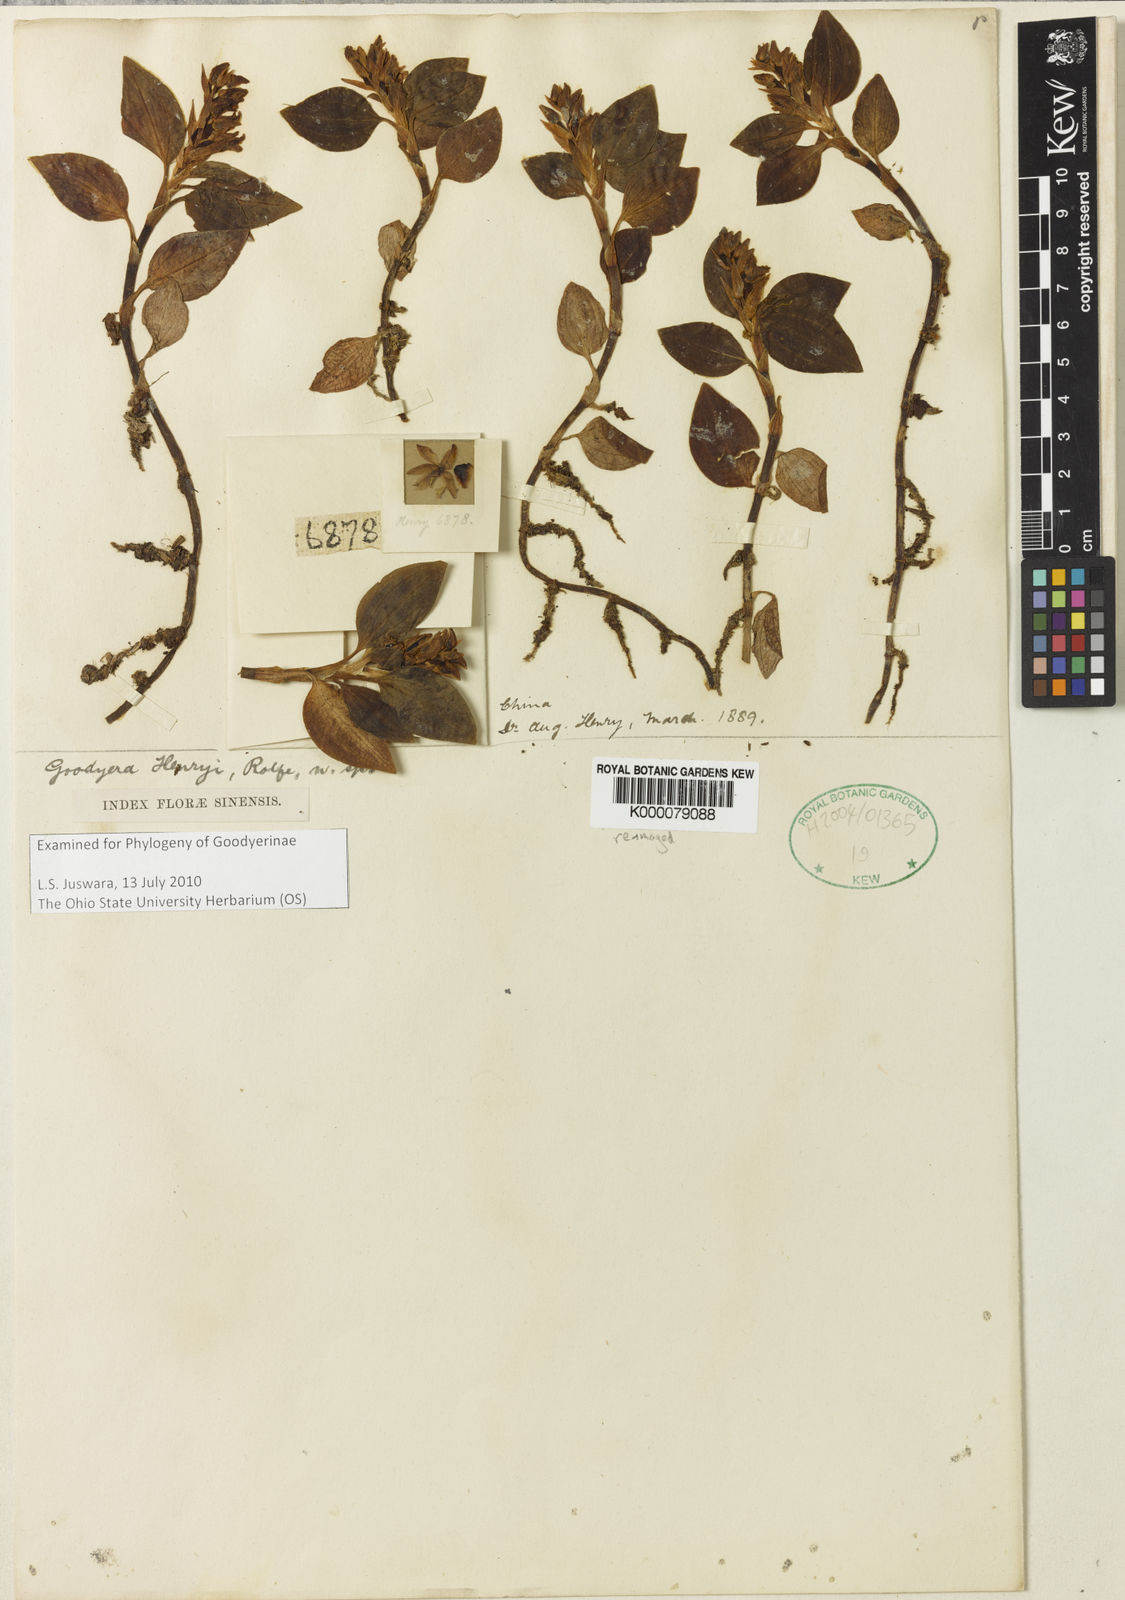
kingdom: Plantae
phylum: Tracheophyta
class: Liliopsida
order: Asparagales
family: Orchidaceae
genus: Goodyera
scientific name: Goodyera henryi
